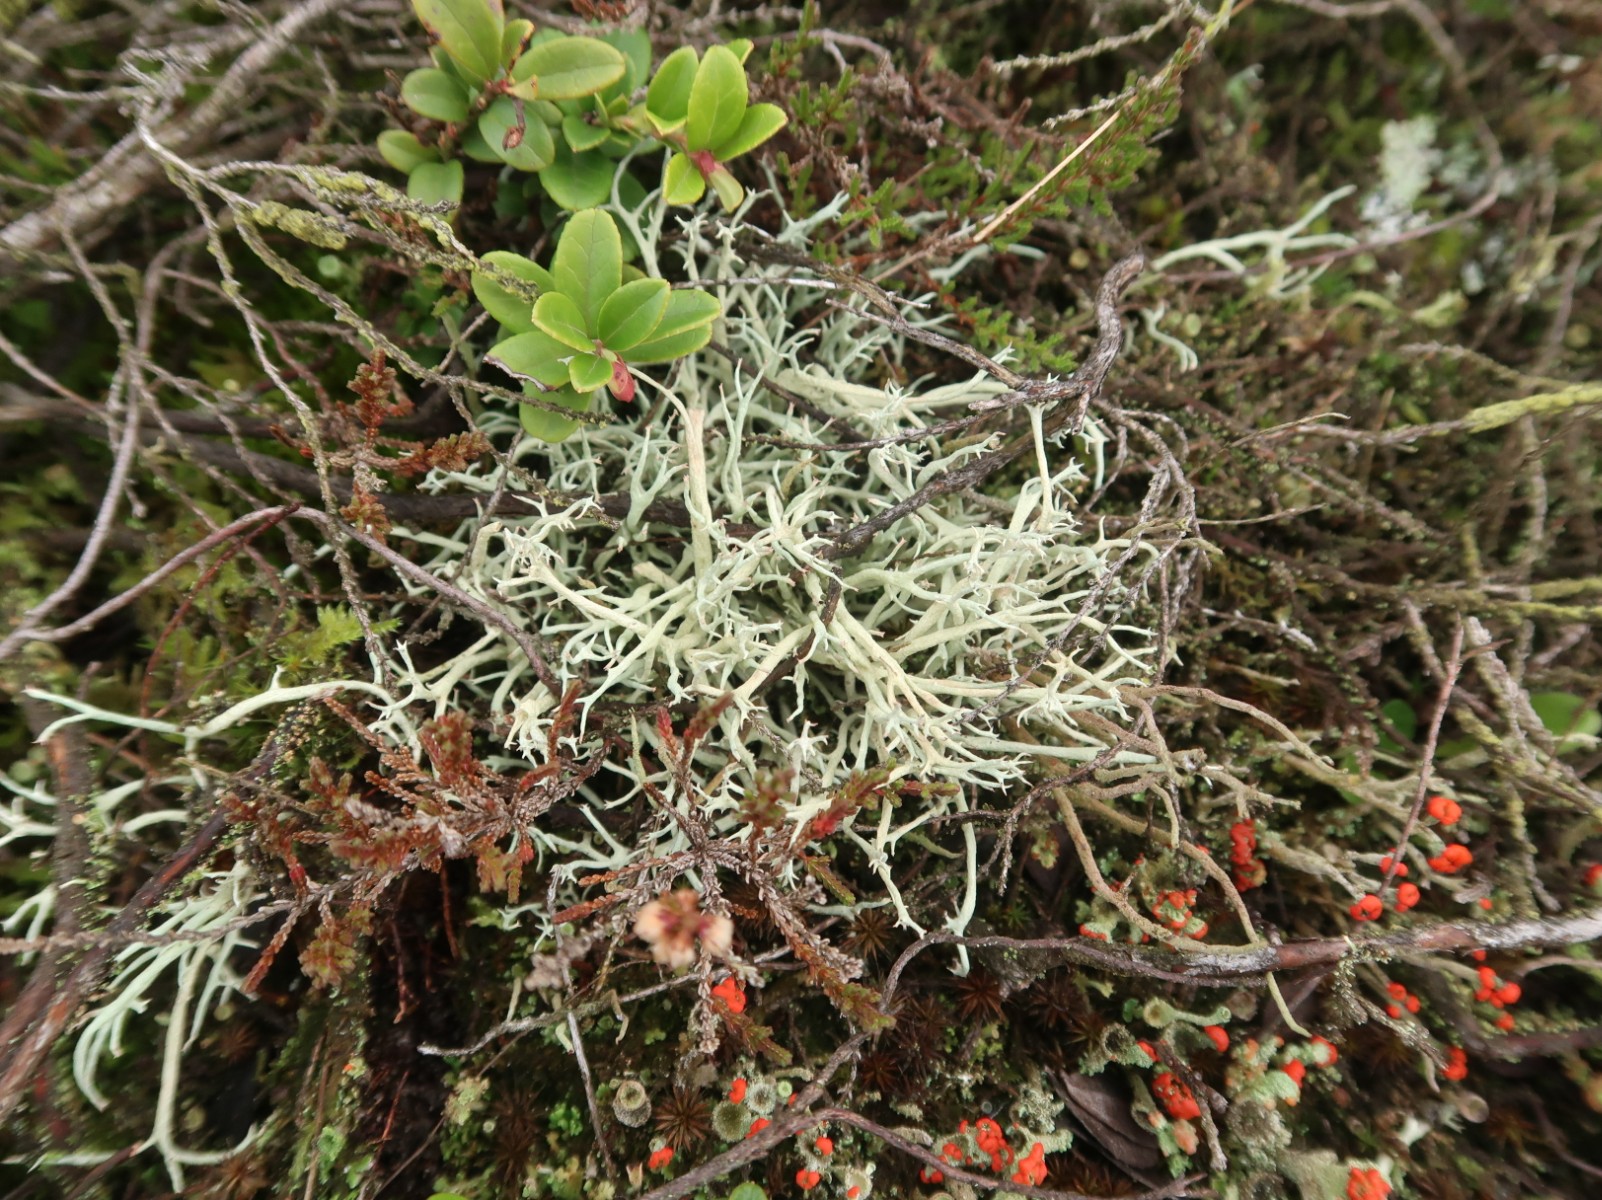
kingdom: Fungi
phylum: Ascomycota
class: Lecanoromycetes
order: Lecanorales
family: Cladoniaceae
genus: Cladonia
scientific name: Cladonia zopfii
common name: klit-bægerlav
